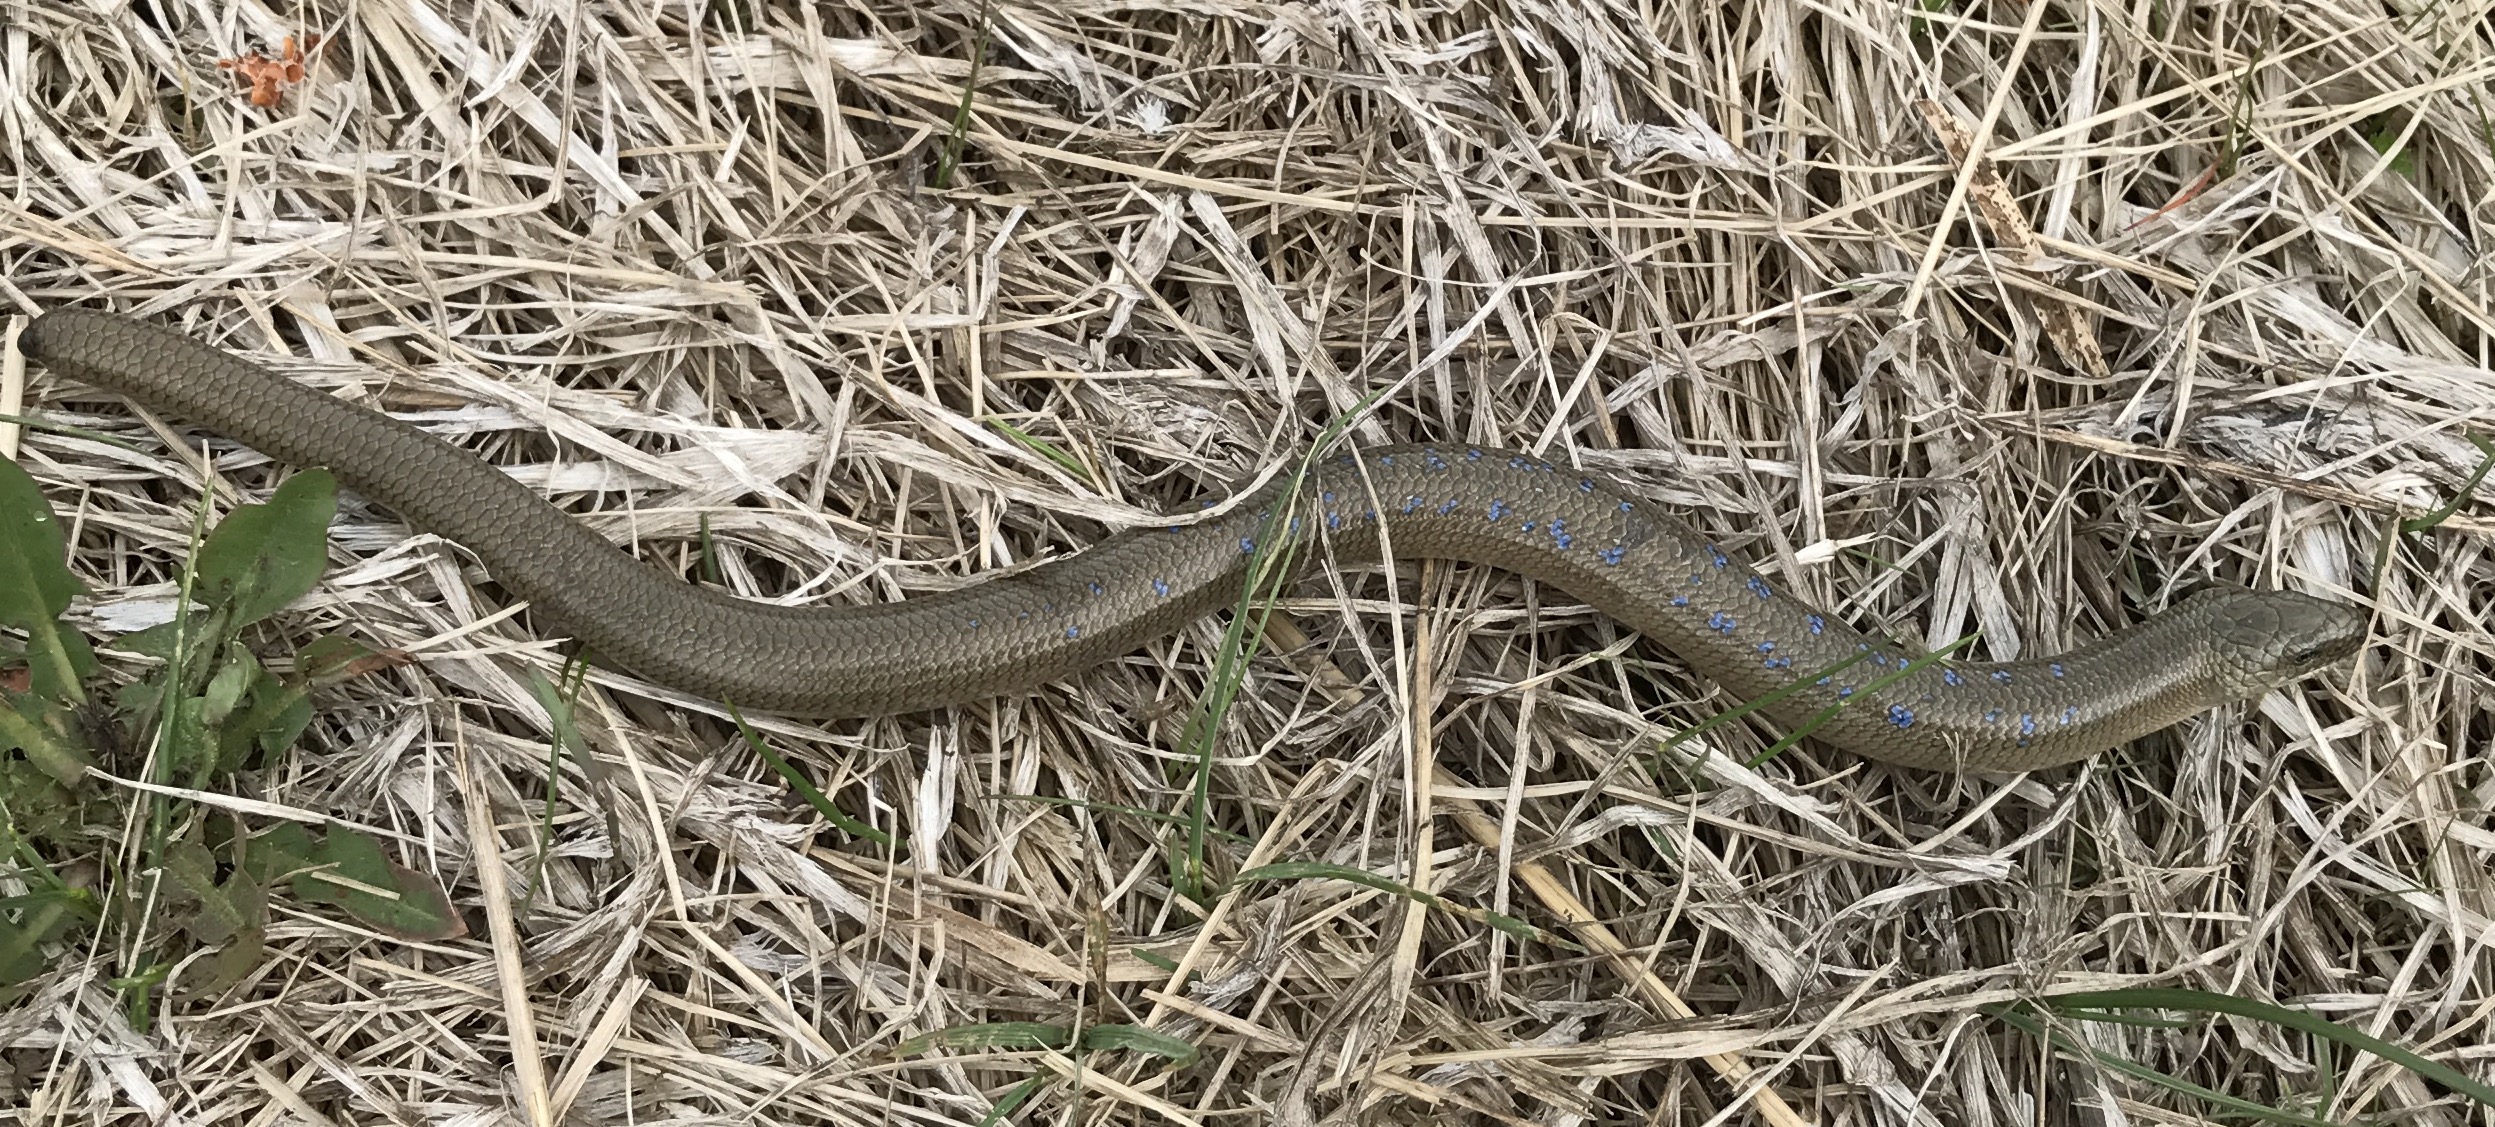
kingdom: Animalia
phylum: Chordata
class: Squamata
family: Anguidae
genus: Anguis
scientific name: Anguis colchica
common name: Slow worm
